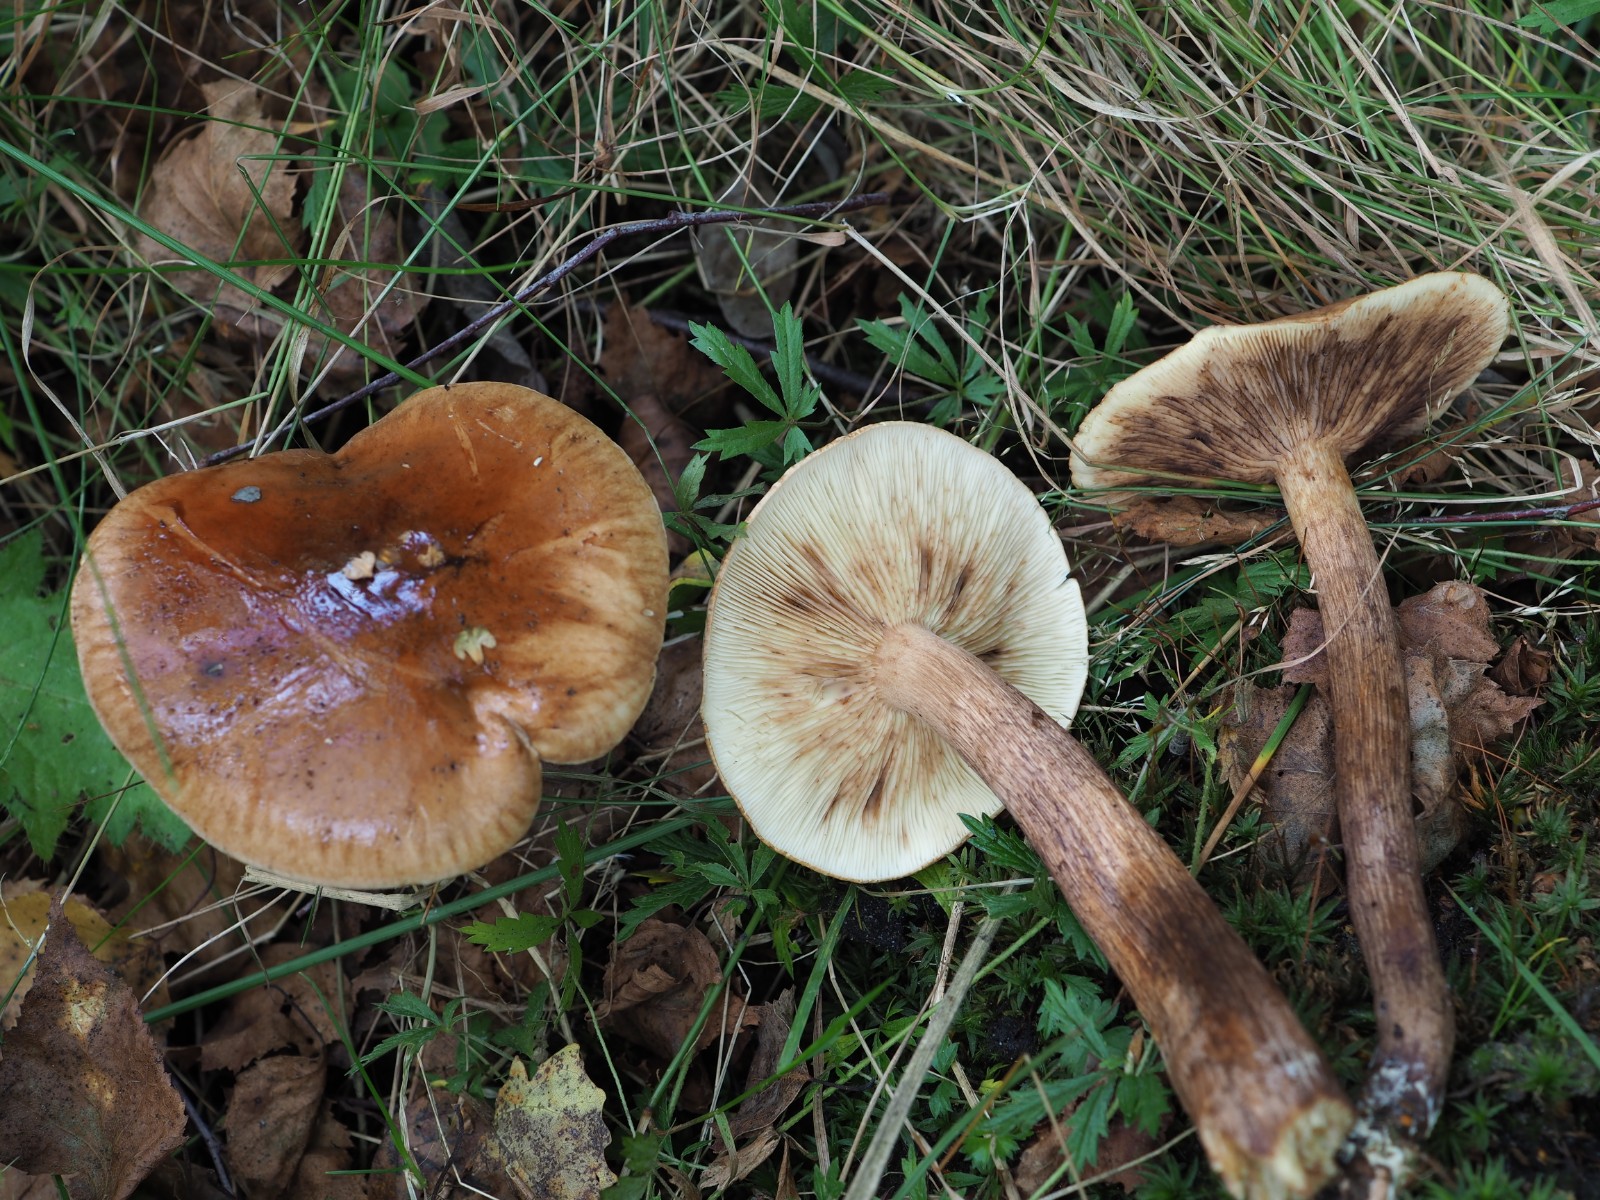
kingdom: Fungi
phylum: Basidiomycota
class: Agaricomycetes
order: Agaricales
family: Tricholomataceae
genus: Tricholoma
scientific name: Tricholoma fulvum
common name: birke-ridderhat
